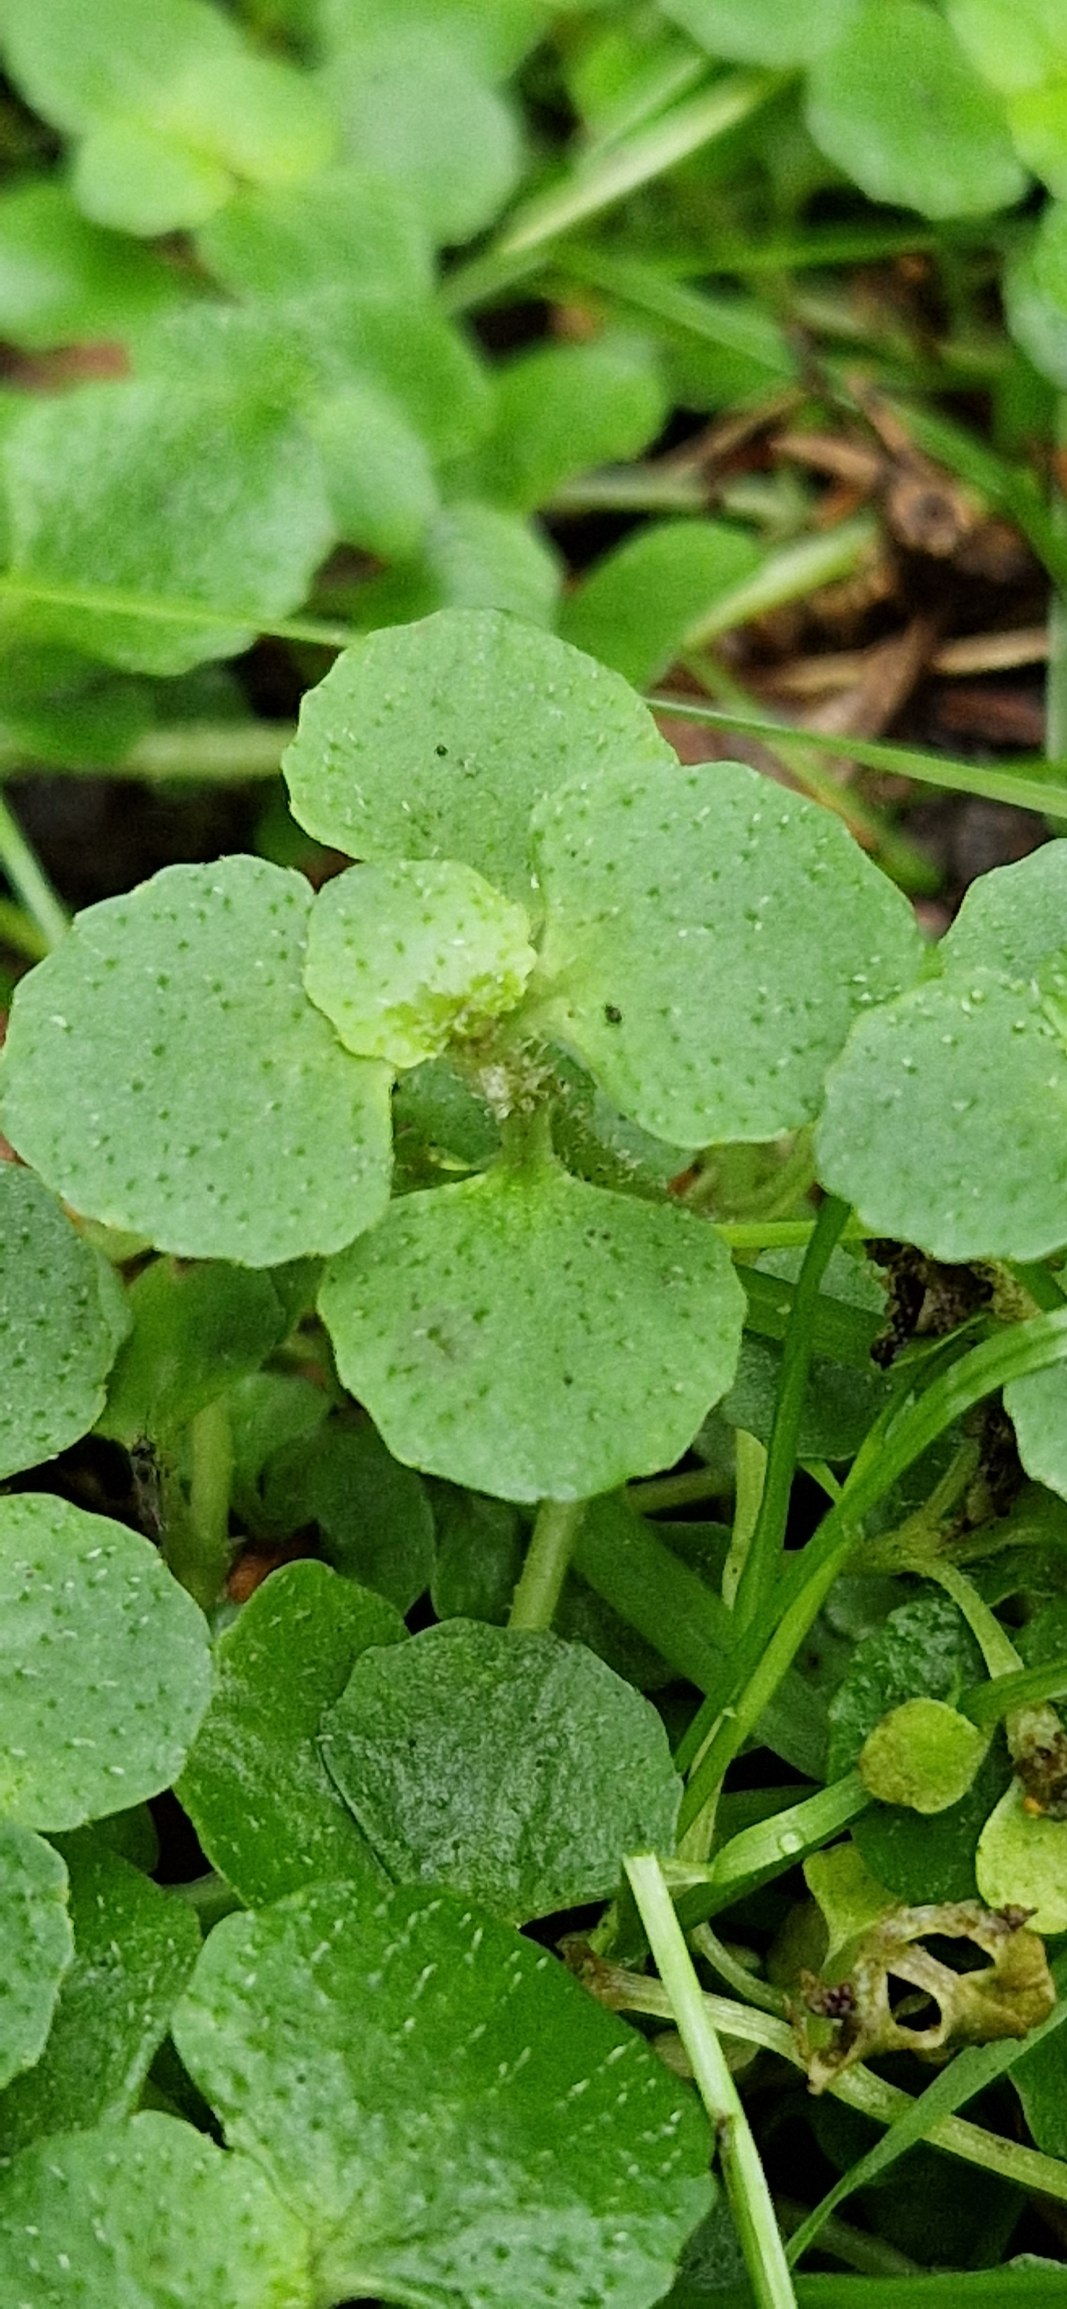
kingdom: Plantae
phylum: Tracheophyta
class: Magnoliopsida
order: Saxifragales
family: Saxifragaceae
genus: Chrysosplenium
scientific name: Chrysosplenium oppositifolium
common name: Småbladet milturt
